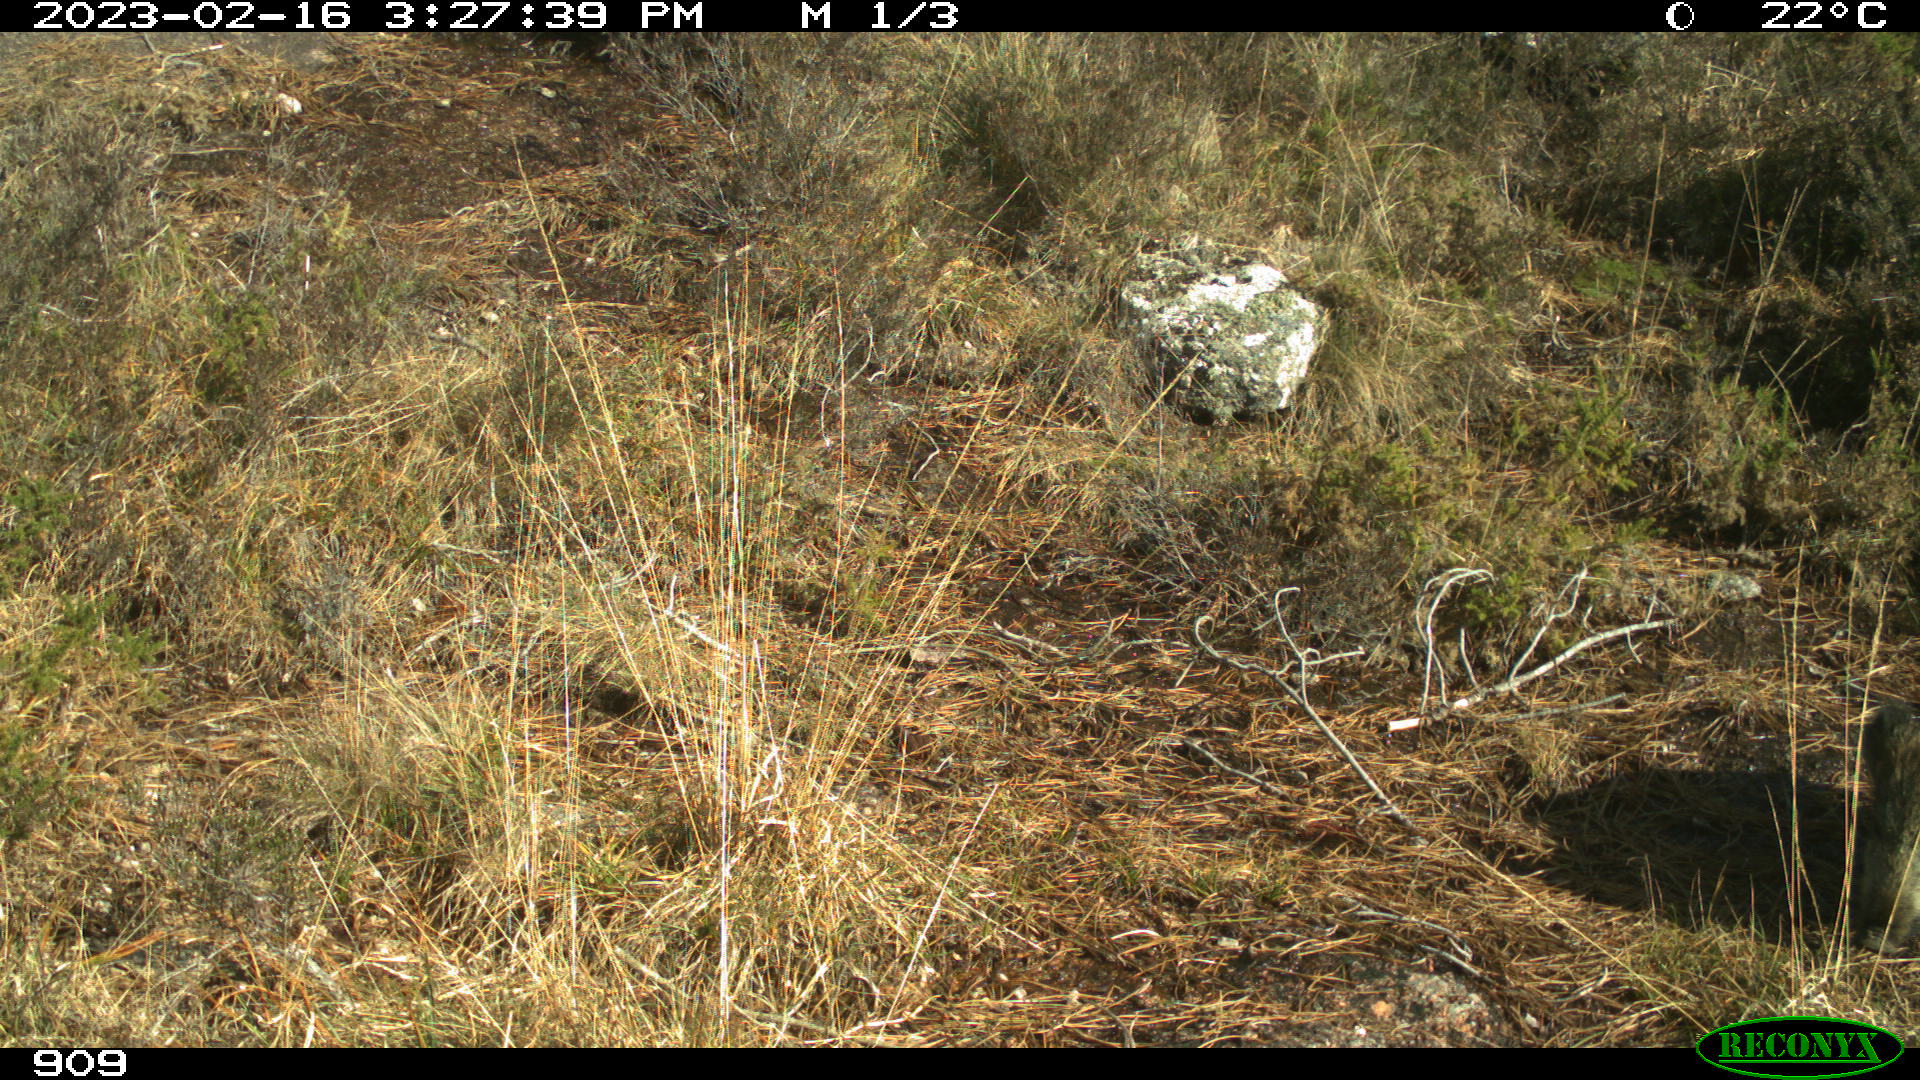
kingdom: Animalia
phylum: Chordata
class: Mammalia
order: Artiodactyla
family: Suidae
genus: Sus
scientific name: Sus scrofa
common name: Wild boar
